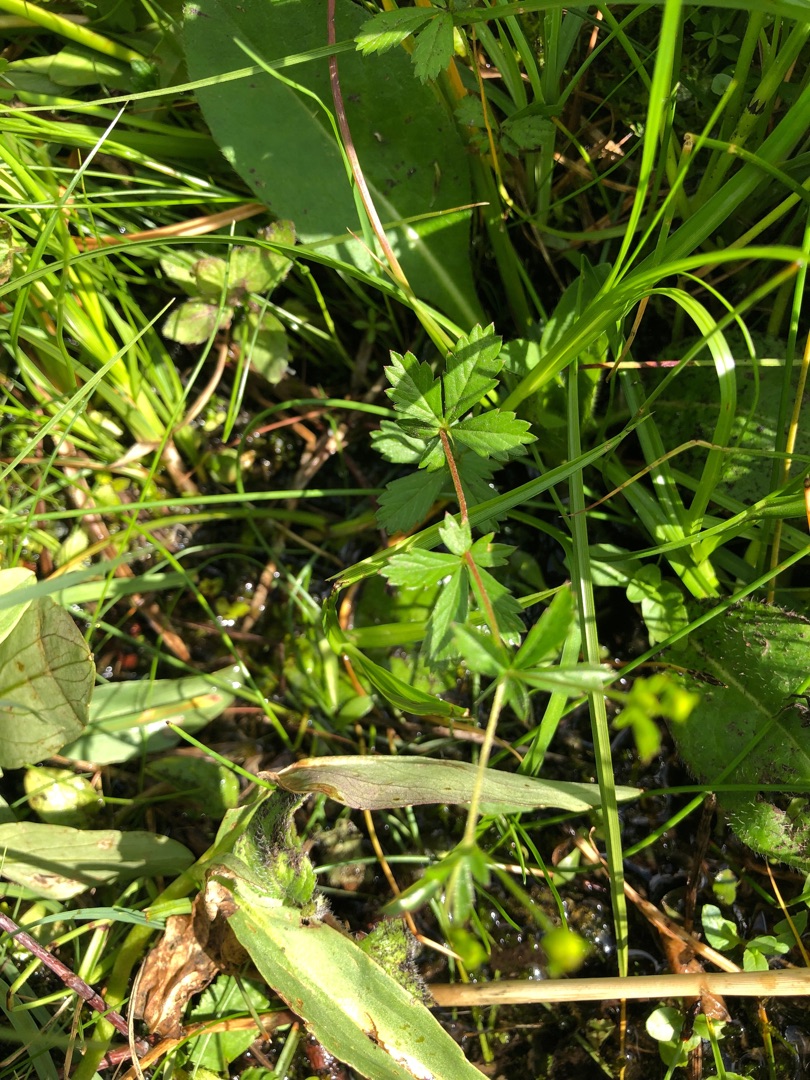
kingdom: Plantae
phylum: Tracheophyta
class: Magnoliopsida
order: Rosales
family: Rosaceae
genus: Potentilla
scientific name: Potentilla erecta
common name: Tormentil
